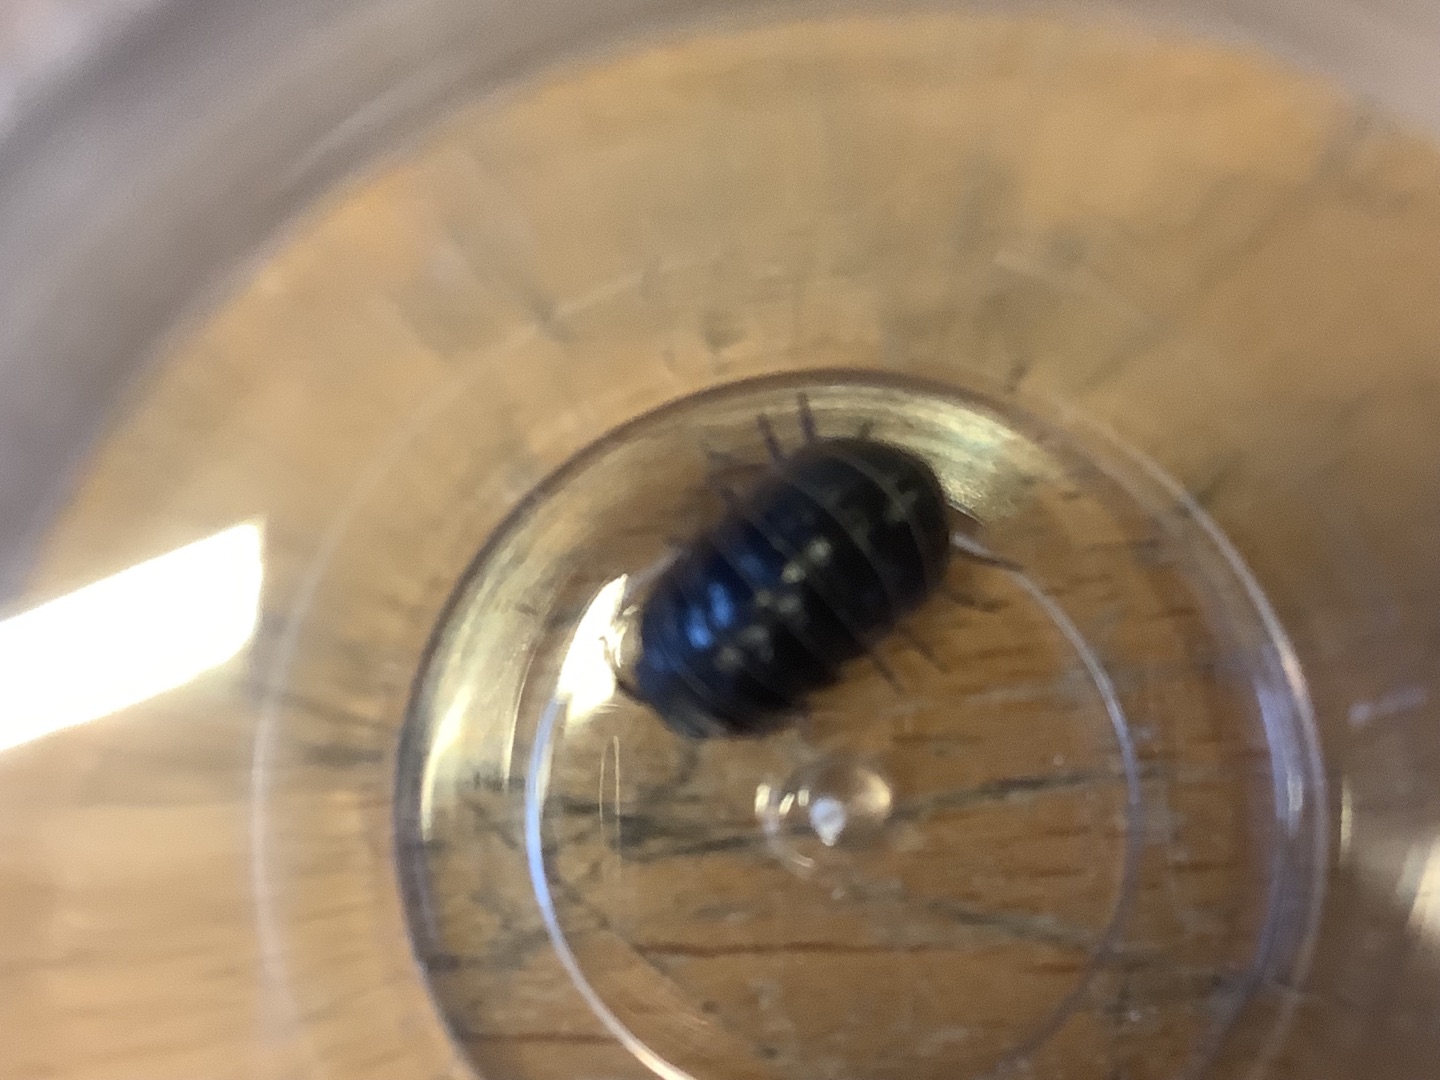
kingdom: Animalia
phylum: Arthropoda
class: Malacostraca
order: Isopoda
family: Armadillidiidae
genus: Armadillidium
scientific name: Armadillidium vulgare
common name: Almindelig kuglebænkebider
